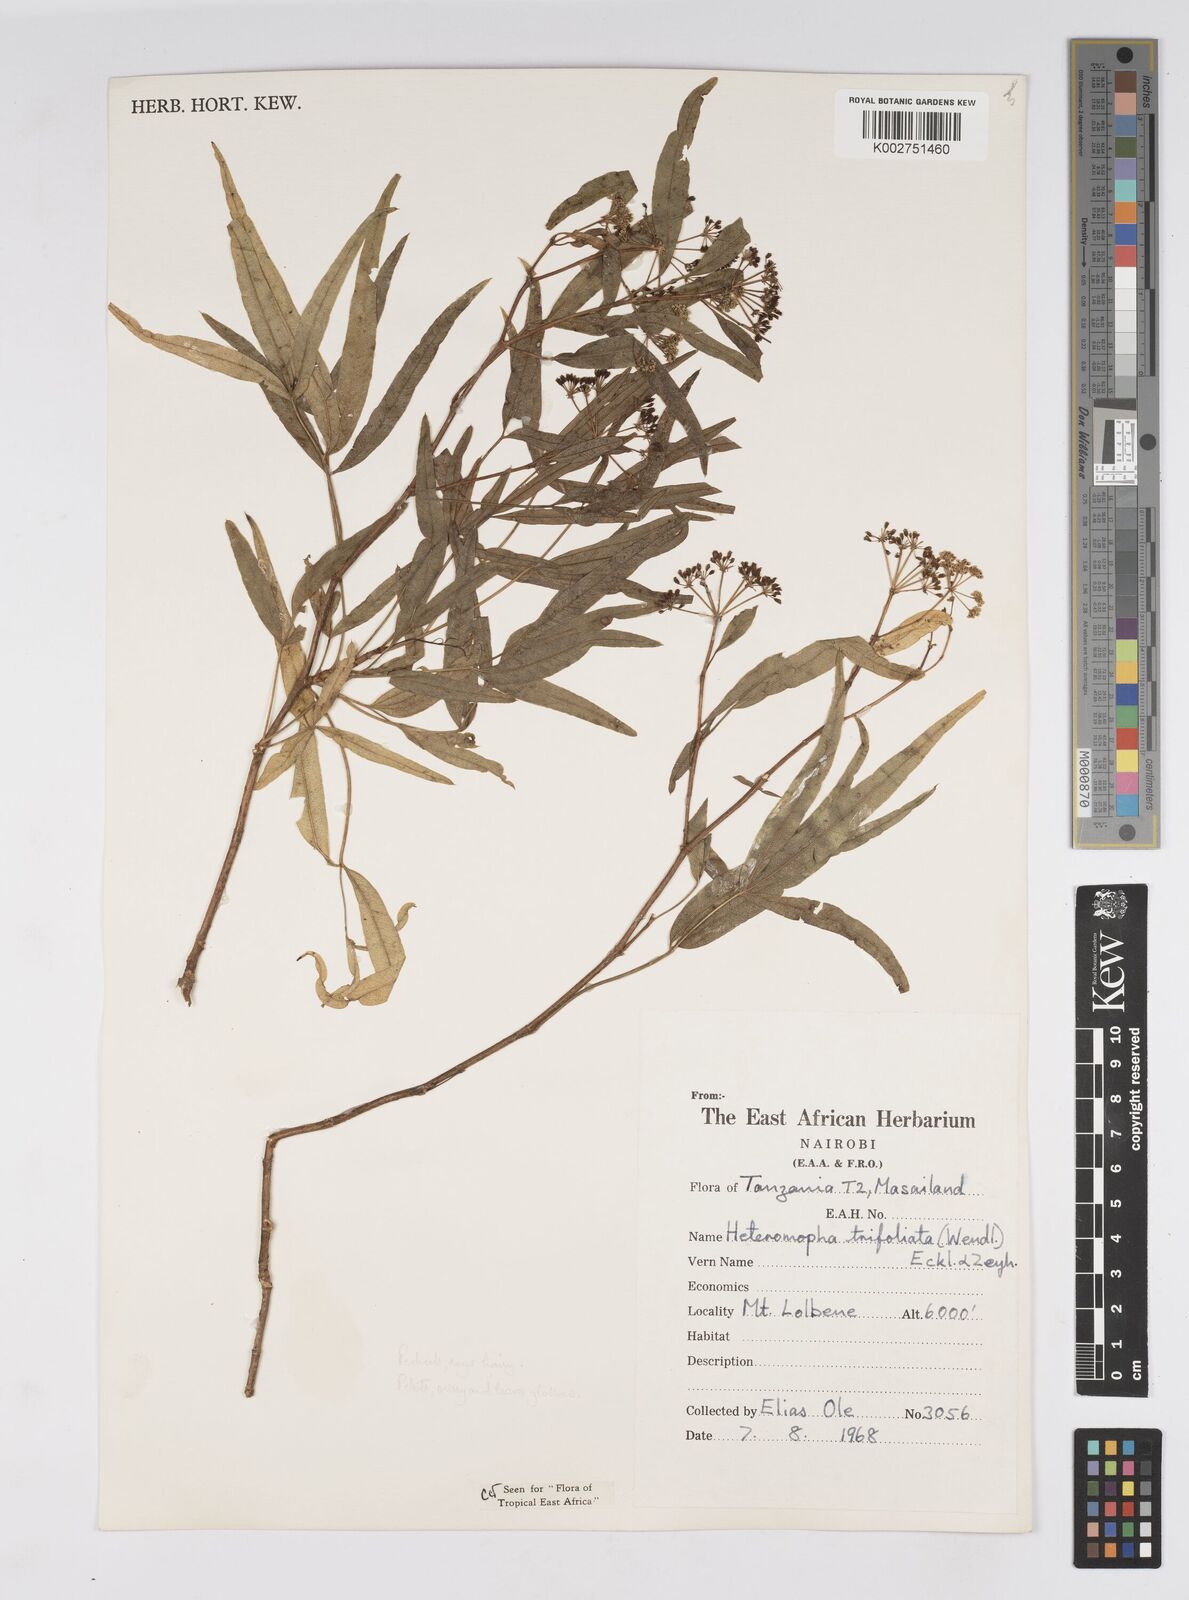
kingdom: Plantae
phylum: Tracheophyta
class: Magnoliopsida
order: Apiales
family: Apiaceae
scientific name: Apiaceae
